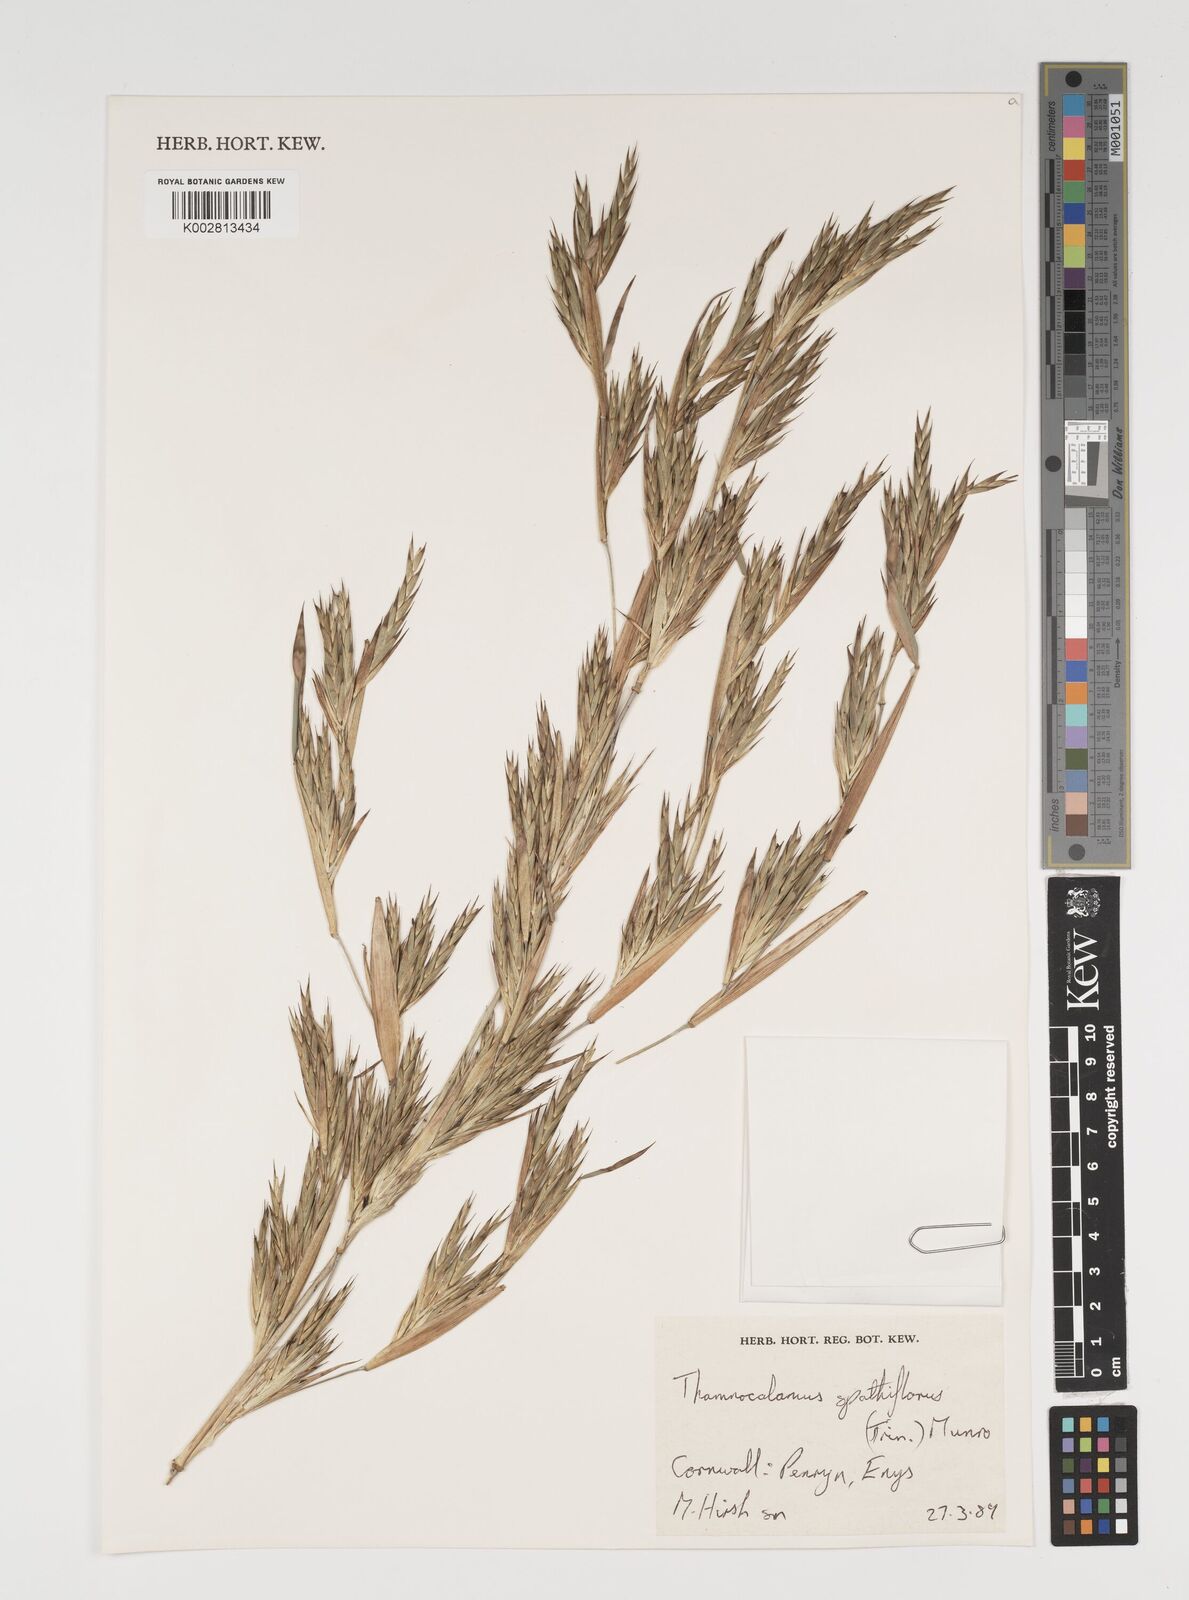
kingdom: Plantae
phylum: Tracheophyta
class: Liliopsida
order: Poales
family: Poaceae
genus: Thamnocalamus
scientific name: Thamnocalamus spathiflorus
